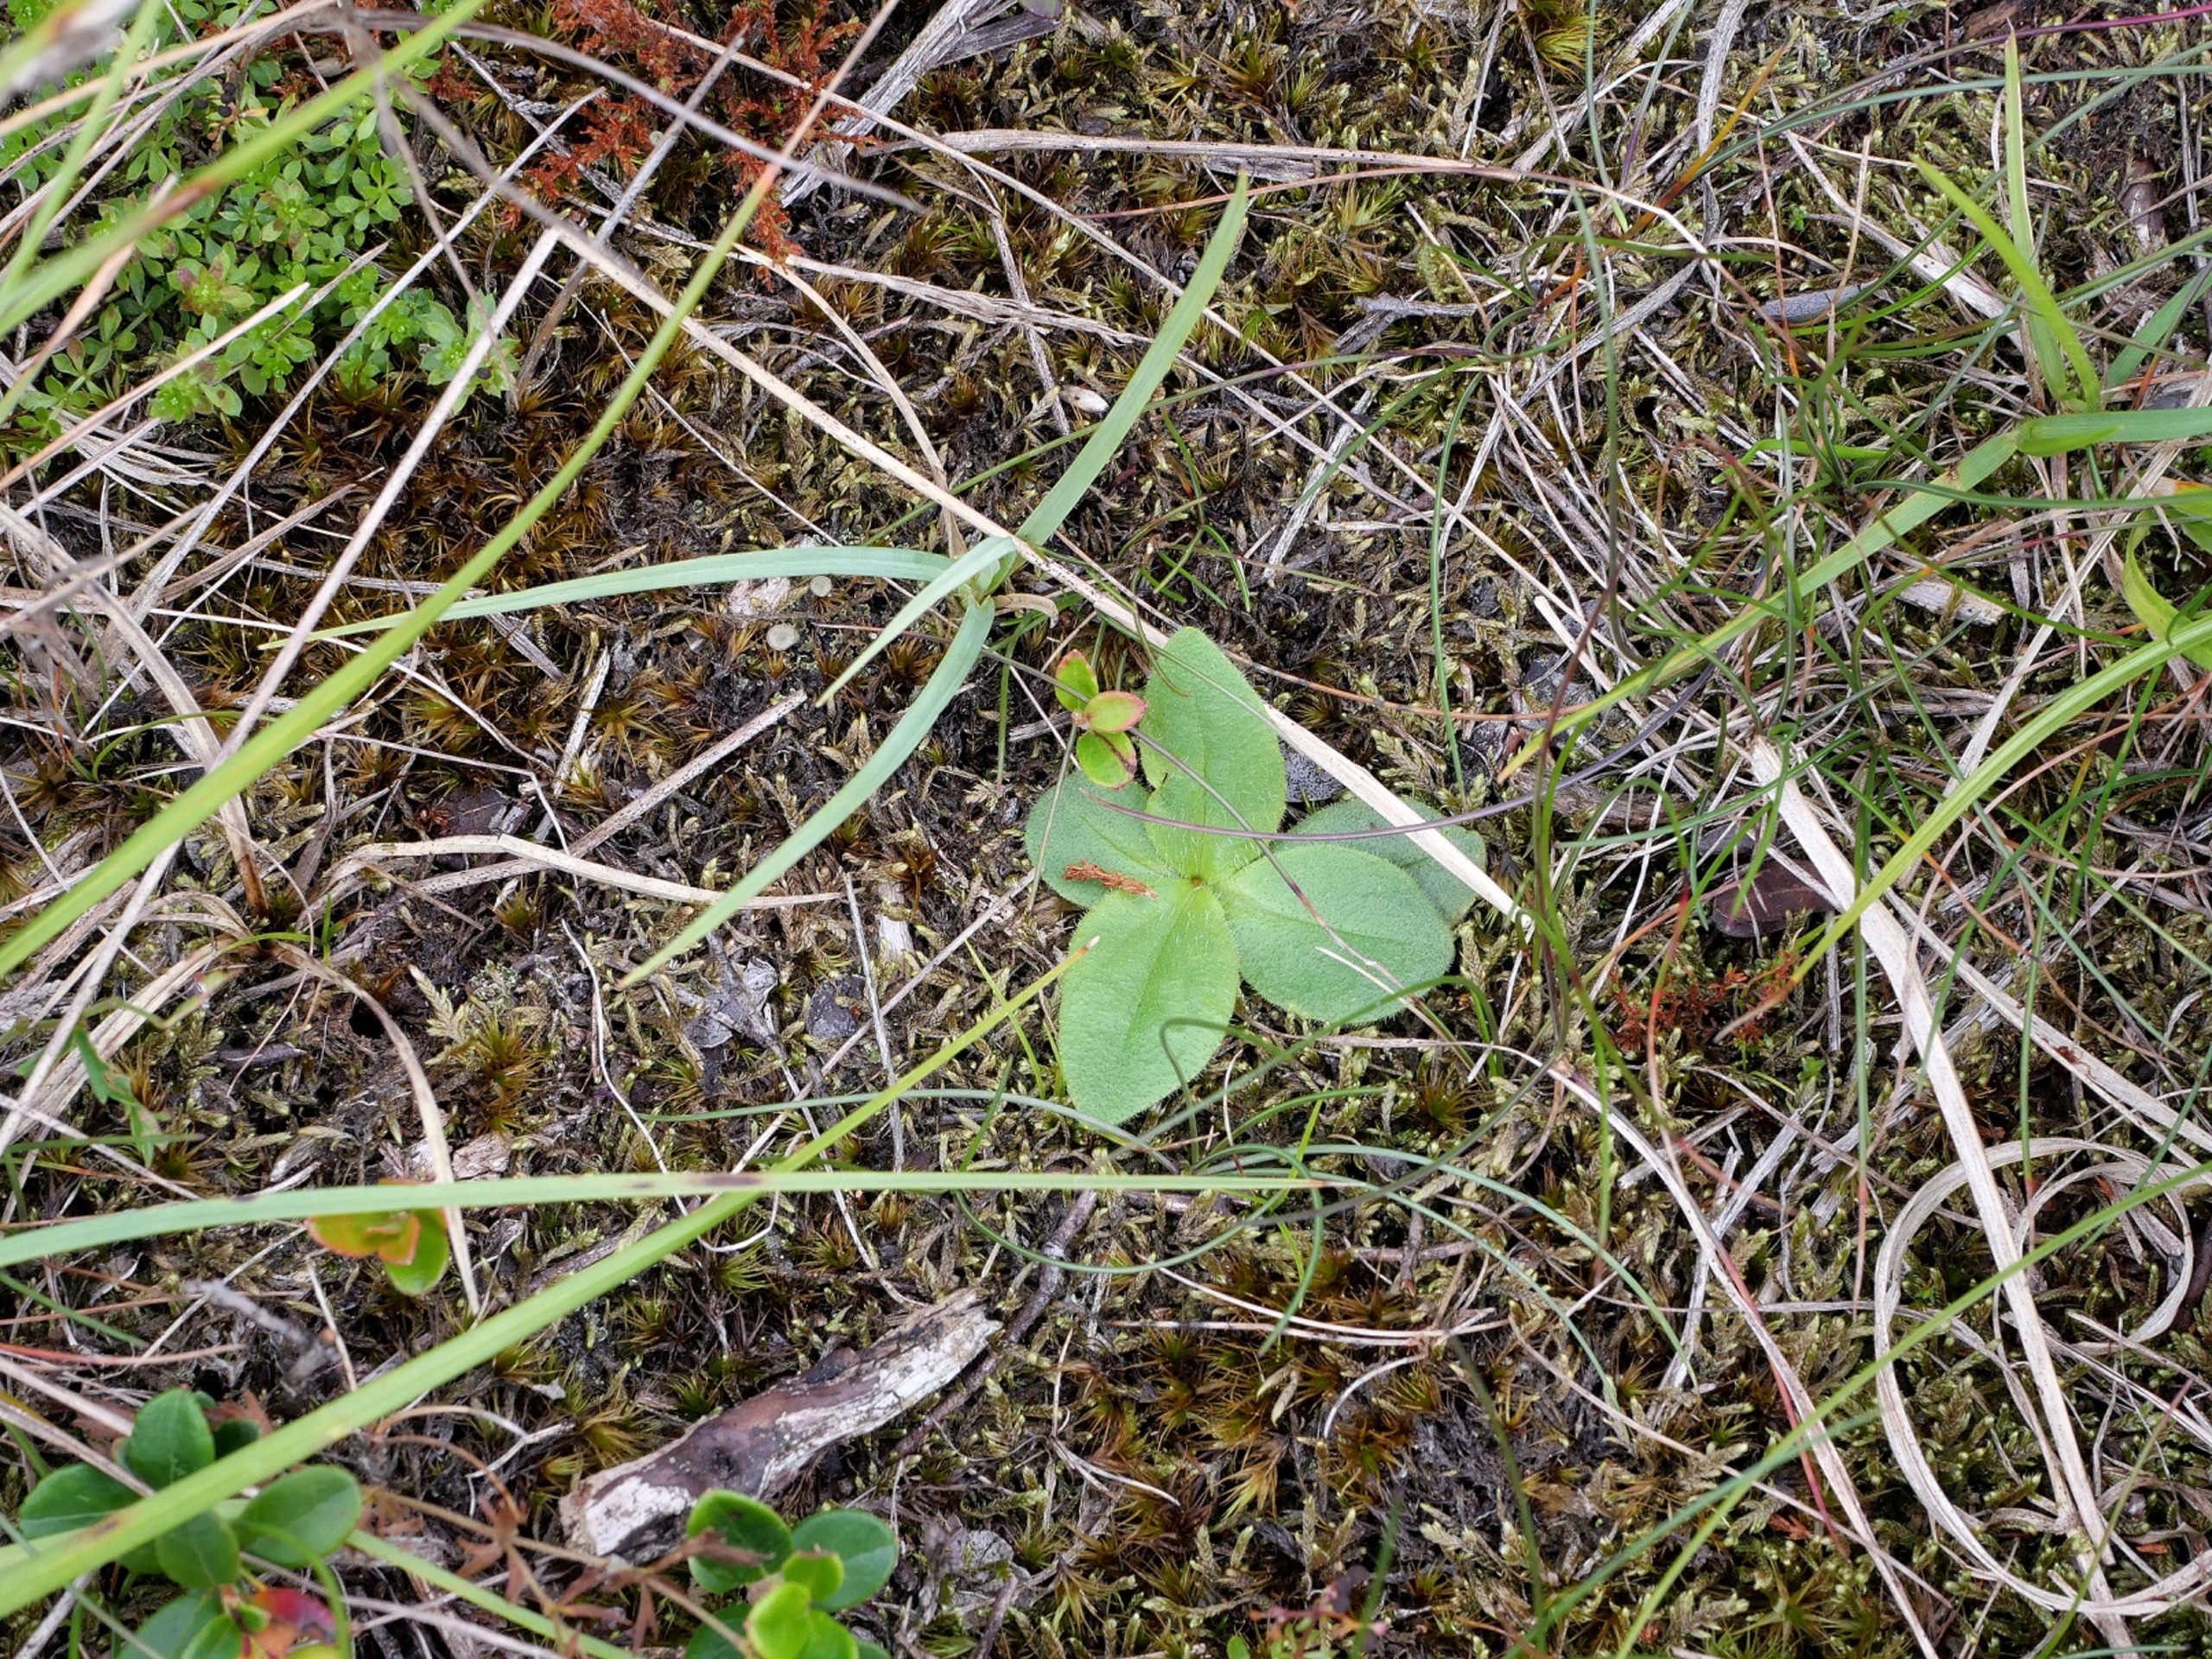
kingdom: Plantae
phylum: Tracheophyta
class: Magnoliopsida
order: Asterales
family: Asteraceae
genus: Arnica
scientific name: Arnica montana
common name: Guldblomme
